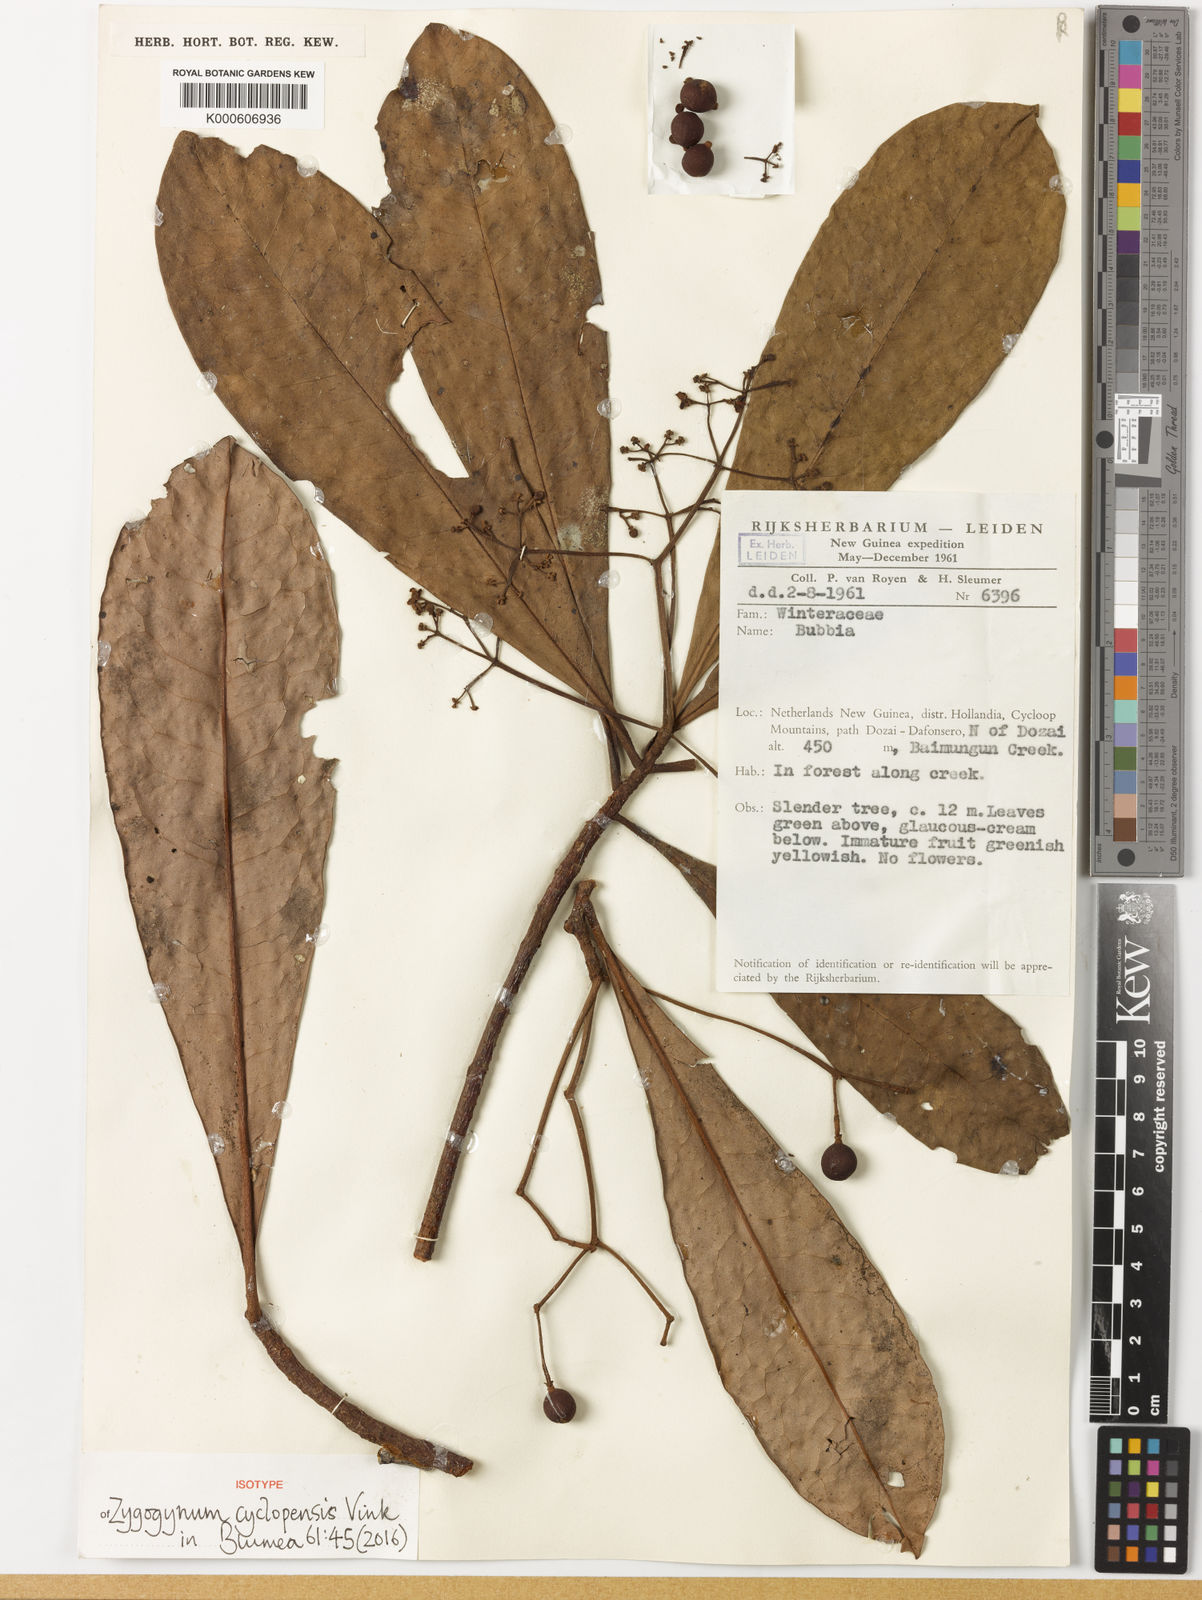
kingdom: Plantae
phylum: Tracheophyta
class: Magnoliopsida
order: Canellales
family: Winteraceae
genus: Zygogynum
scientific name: Zygogynum cyclopensis
